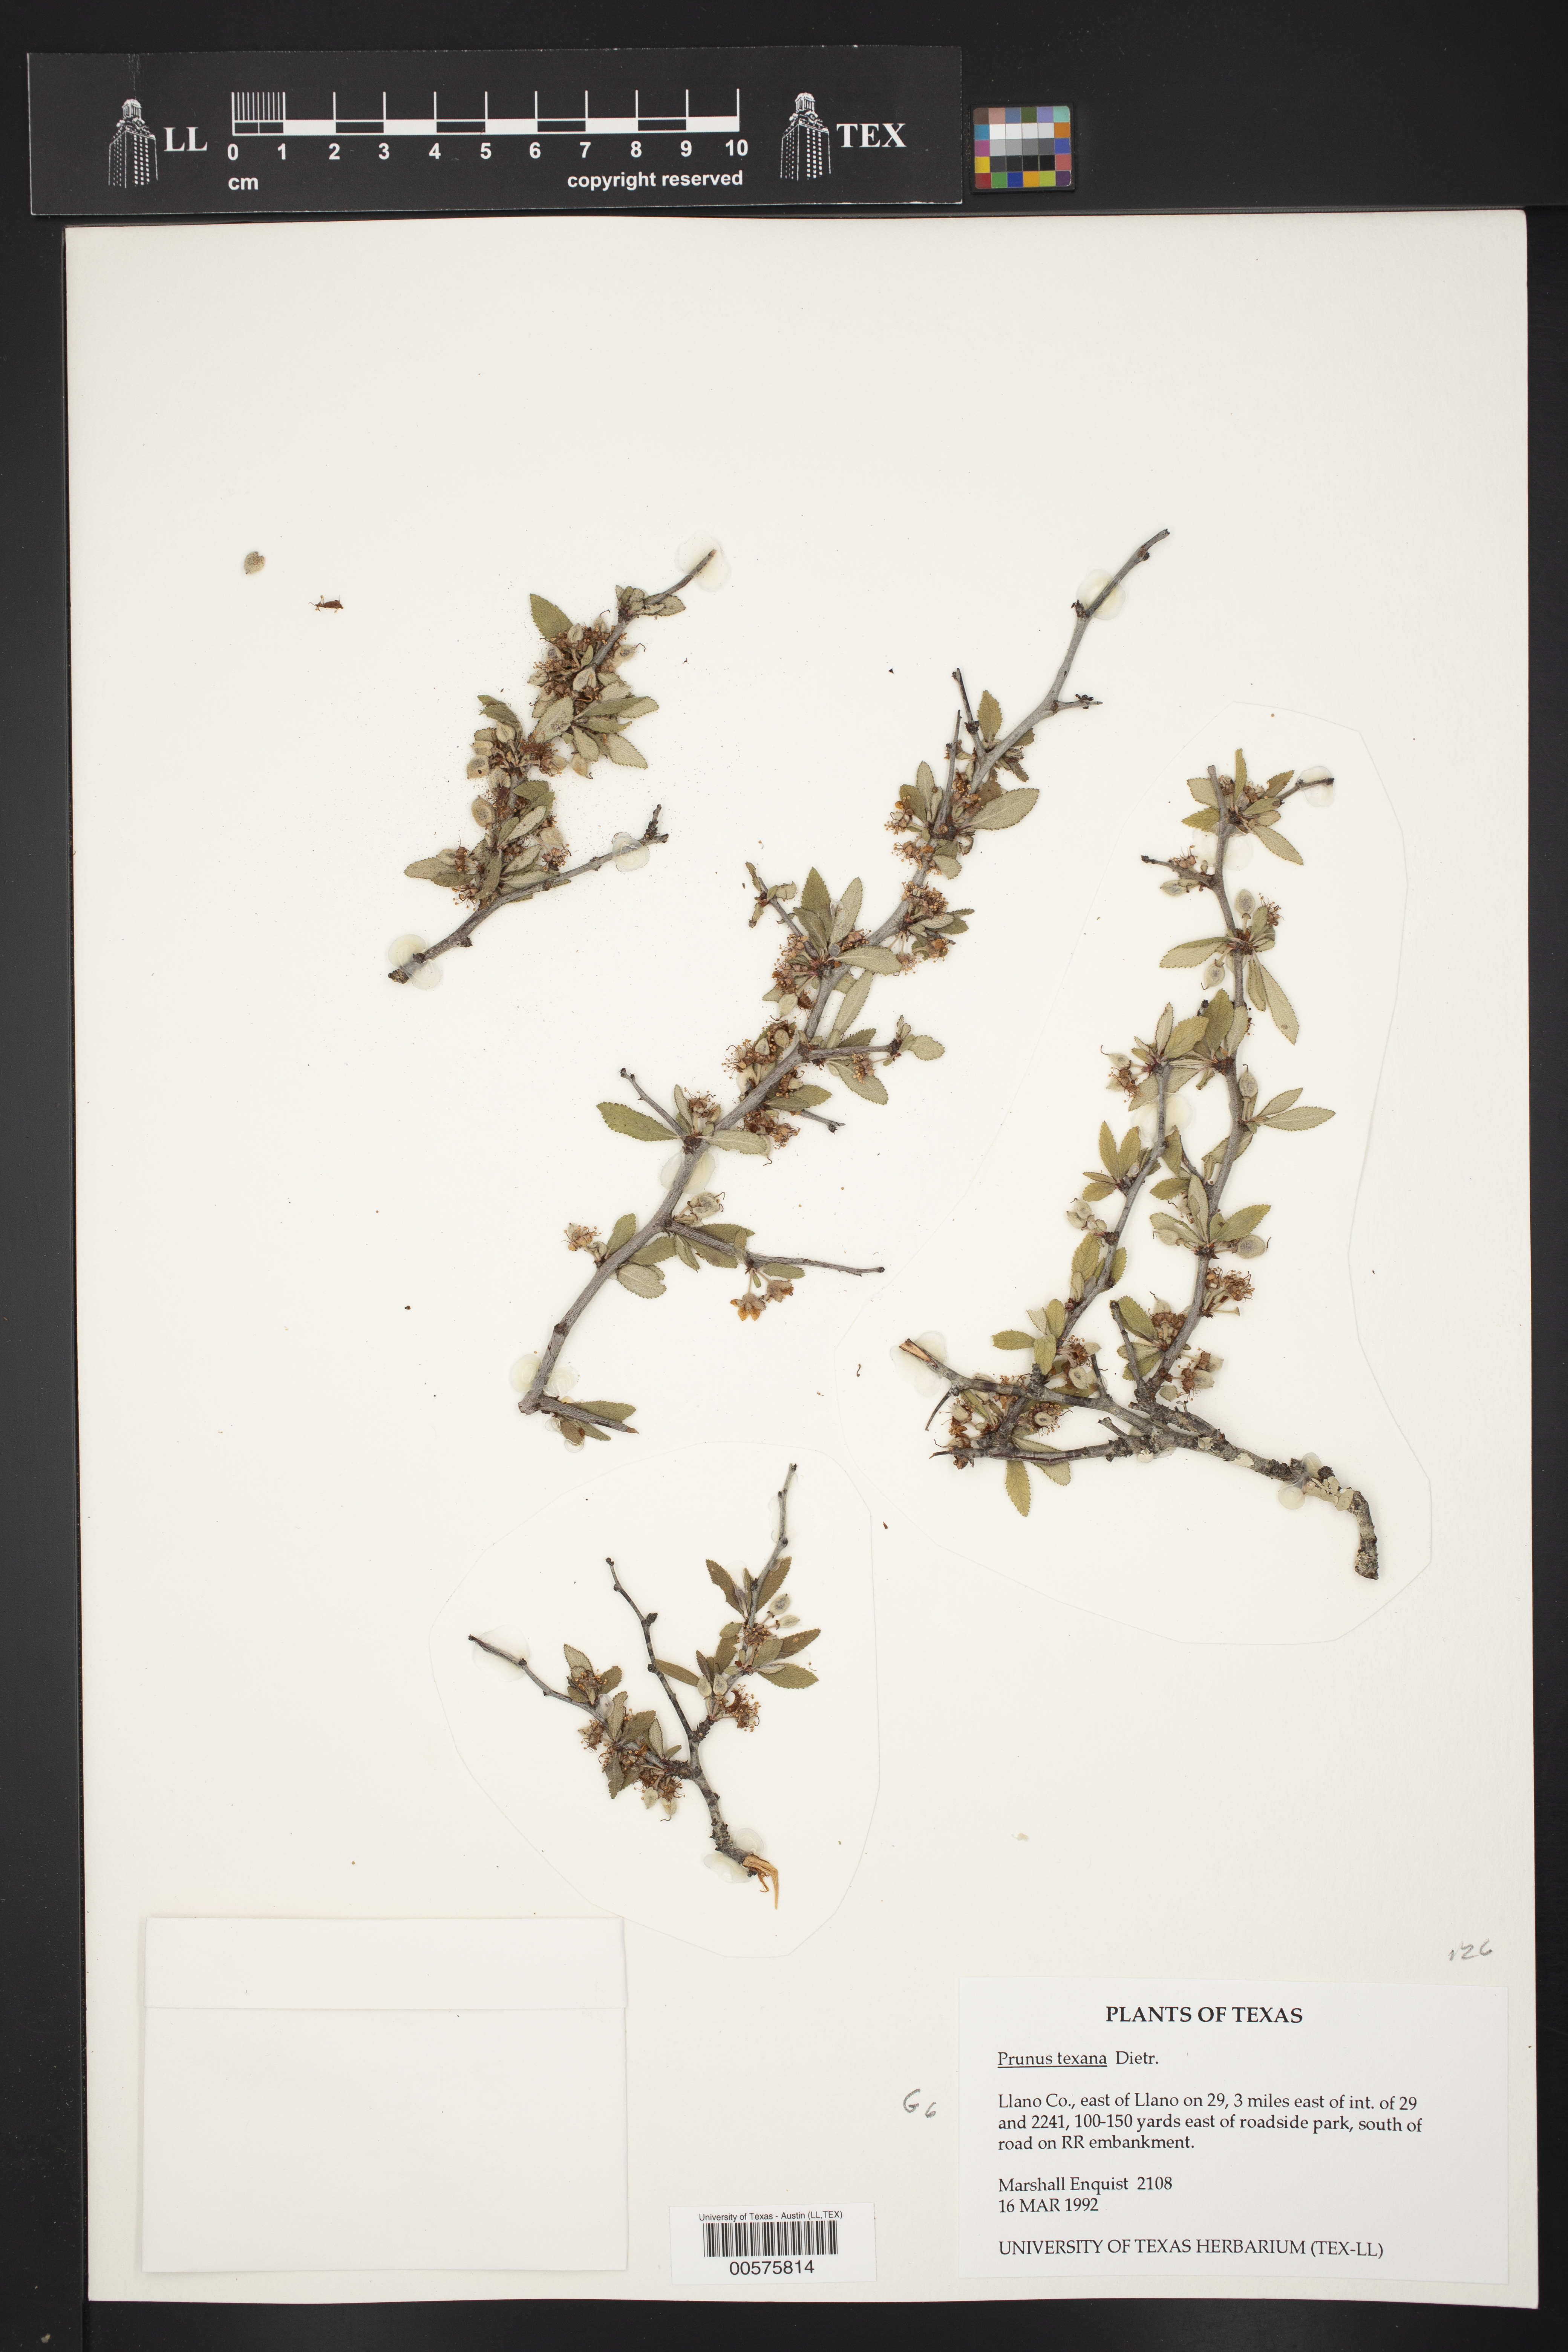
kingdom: Plantae
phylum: Tracheophyta
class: Magnoliopsida
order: Rosales
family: Rosaceae
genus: Prunus
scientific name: Prunus texana
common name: Texas almond cherry
